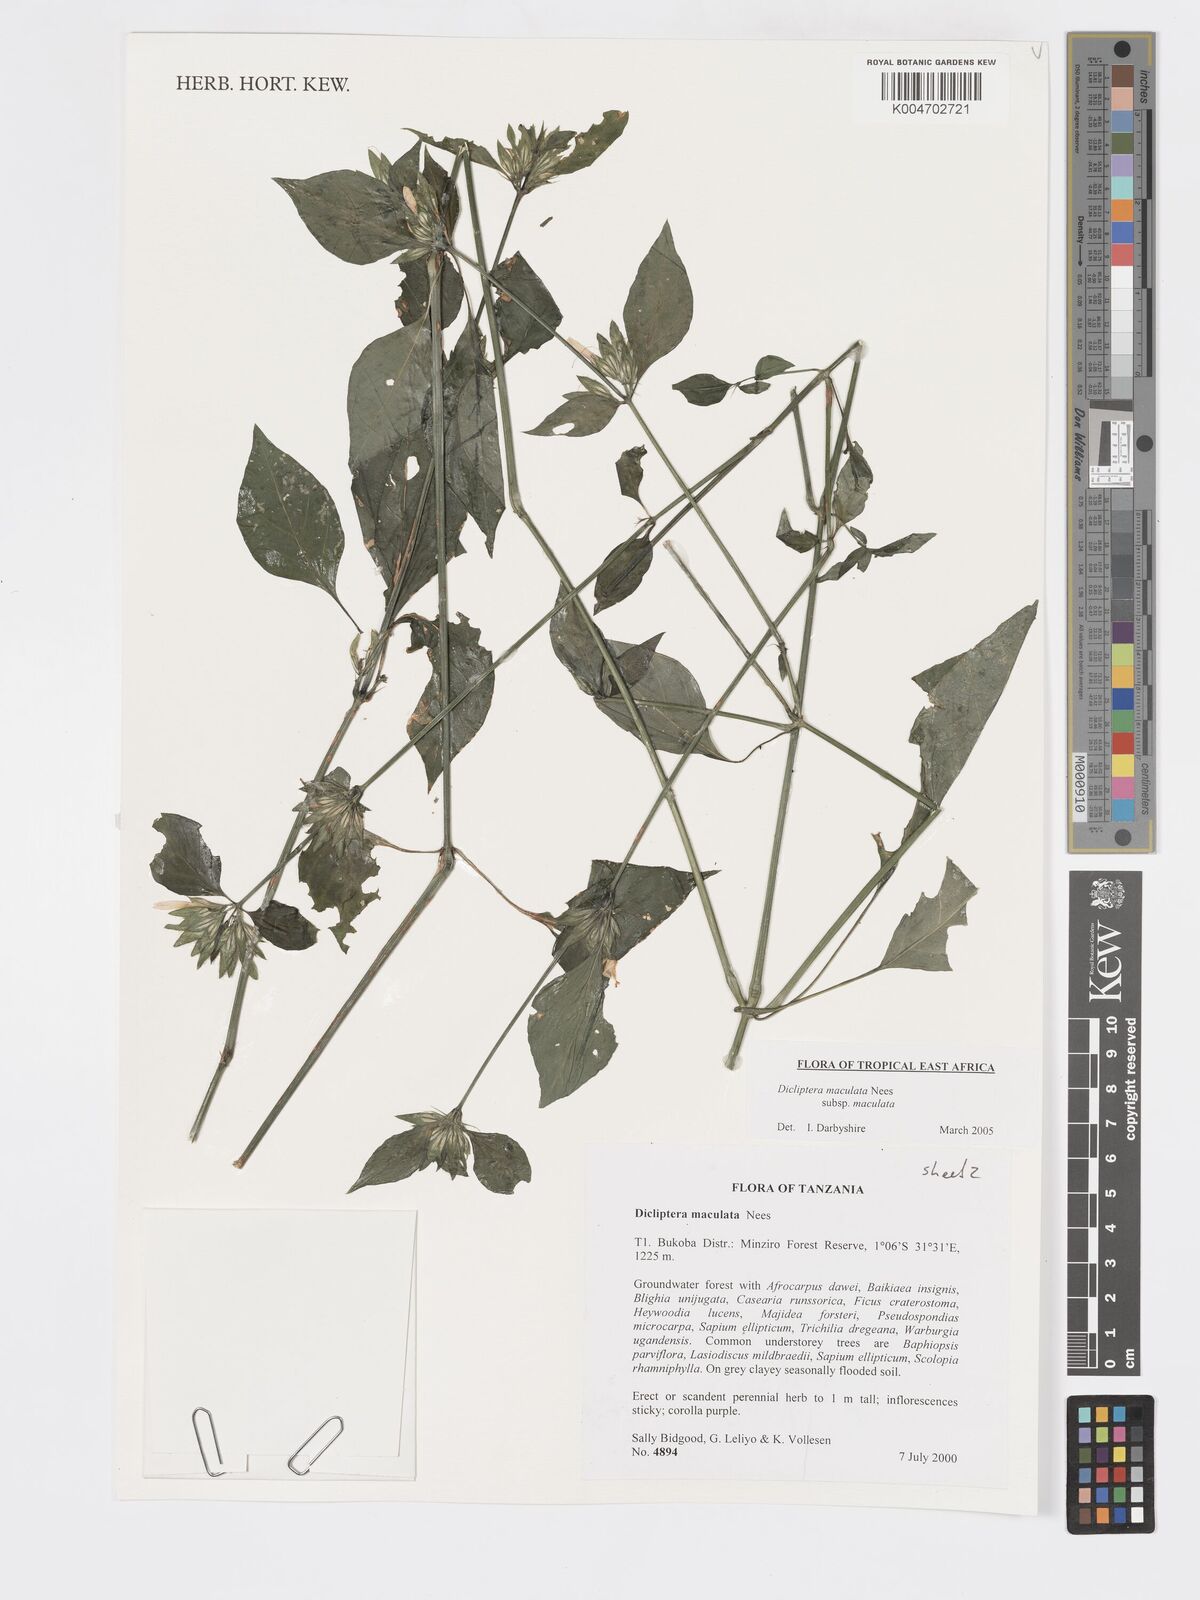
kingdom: Plantae
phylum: Tracheophyta
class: Magnoliopsida
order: Lamiales
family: Acanthaceae
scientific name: Acanthaceae
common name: Acanthaceae
